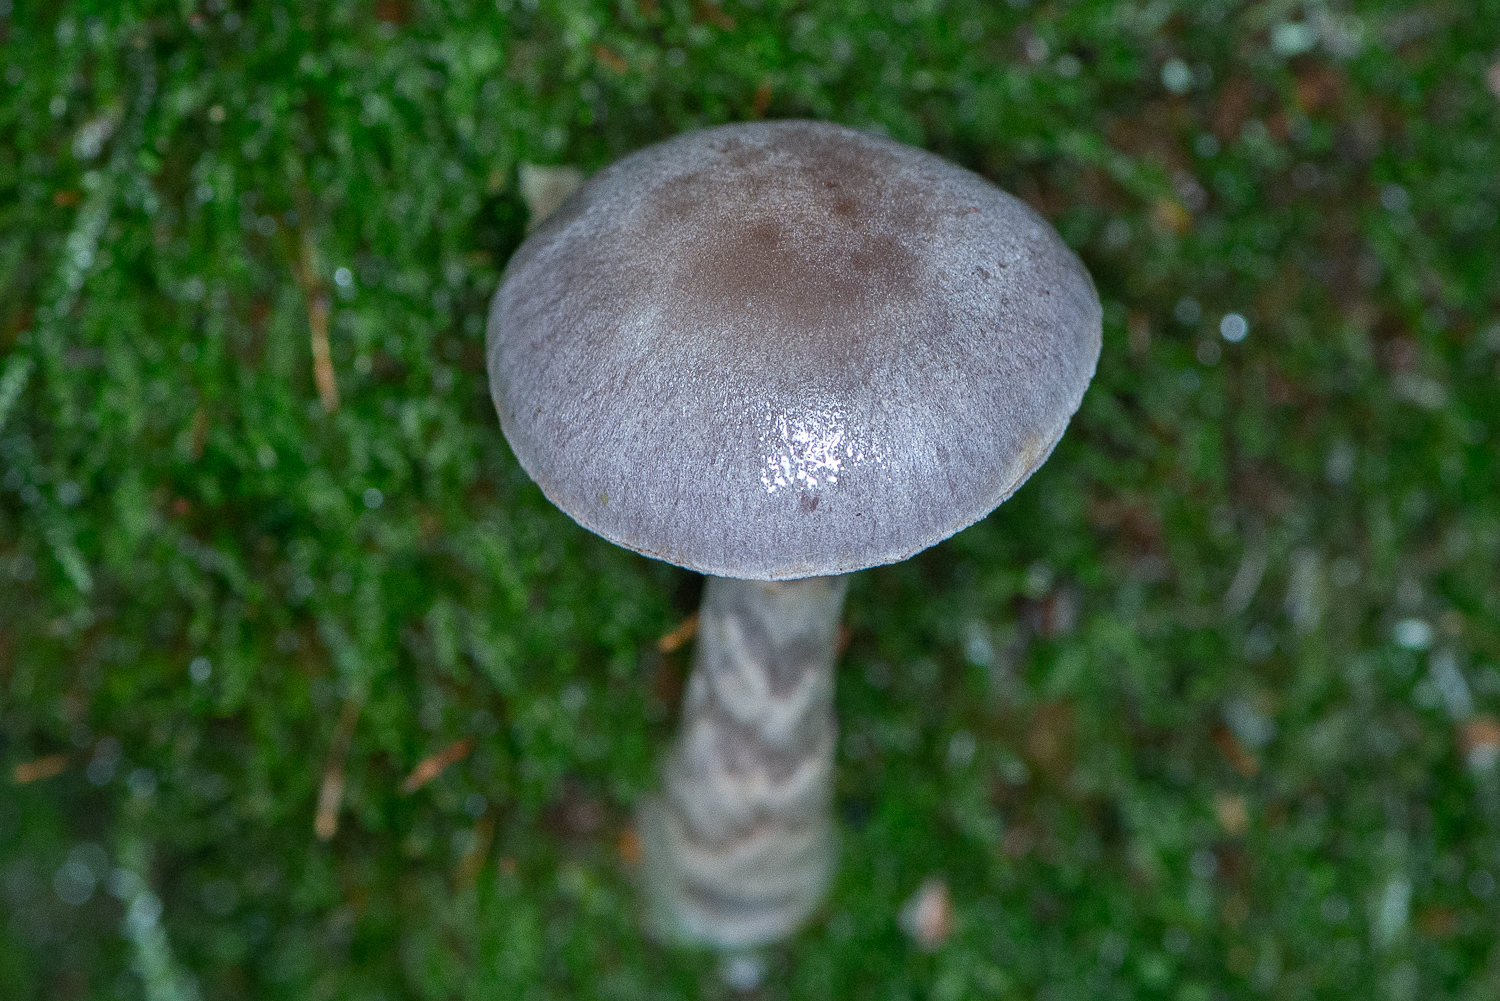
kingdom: Fungi
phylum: Basidiomycota
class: Agaricomycetes
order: Agaricales
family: Cortinariaceae
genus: Cortinarius
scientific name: Cortinarius
